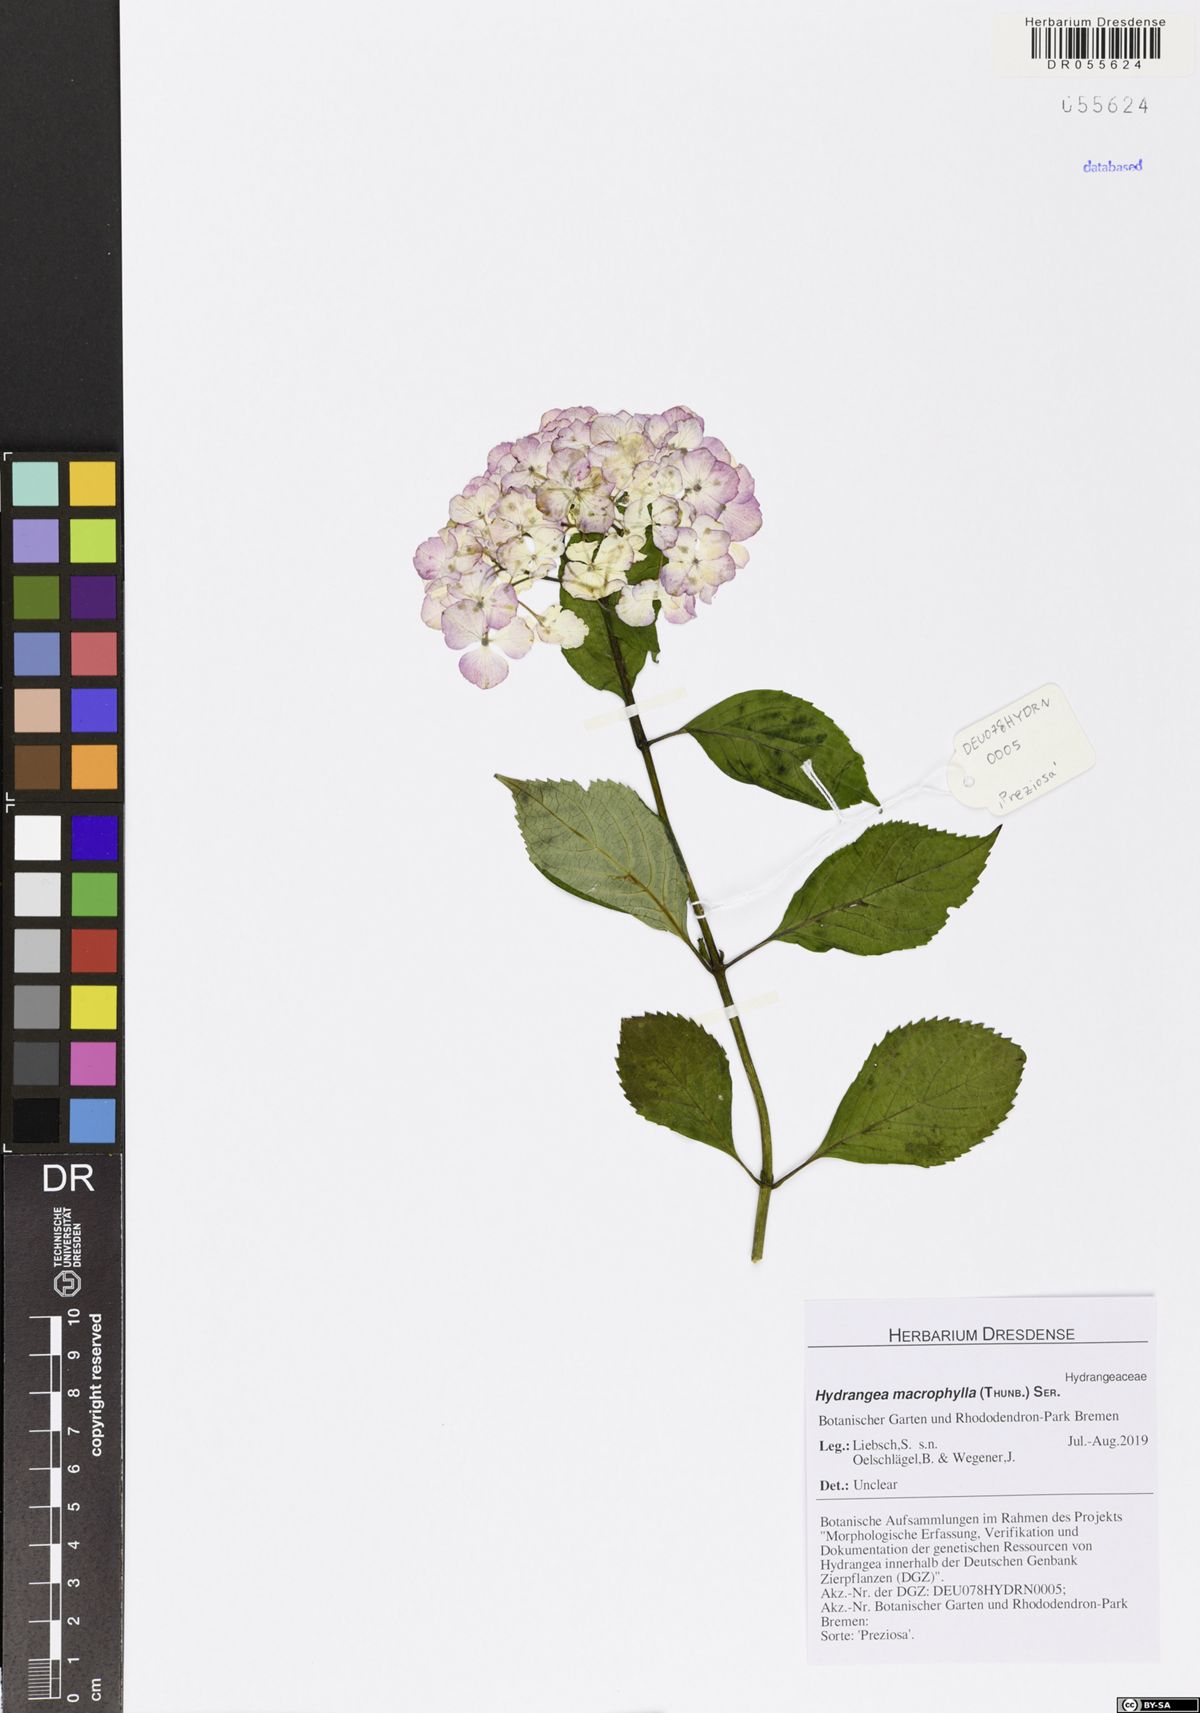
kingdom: Plantae
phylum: Tracheophyta
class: Magnoliopsida
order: Cornales
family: Hydrangeaceae
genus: Hydrangea
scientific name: Hydrangea macrophylla
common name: Hydrangea
